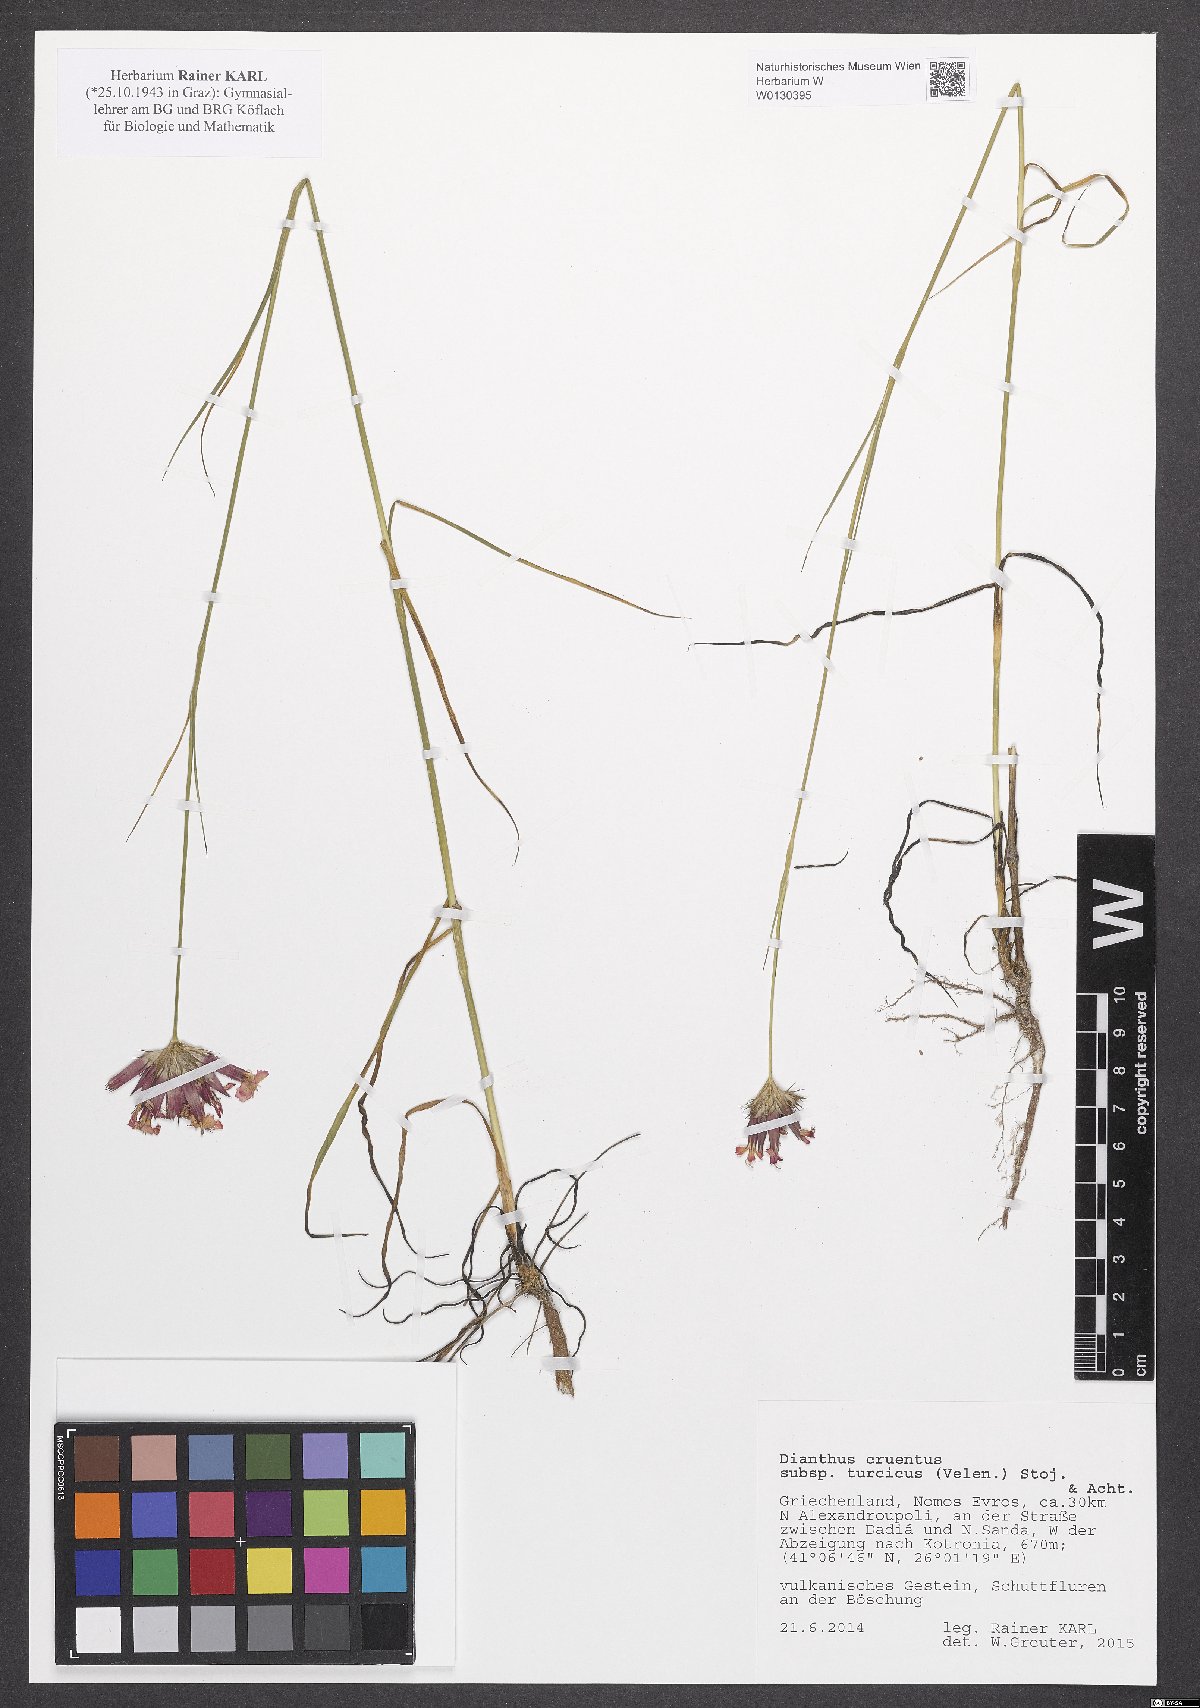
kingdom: Plantae
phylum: Tracheophyta
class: Magnoliopsida
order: Caryophyllales
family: Caryophyllaceae
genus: Dianthus
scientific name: Dianthus cruentus
